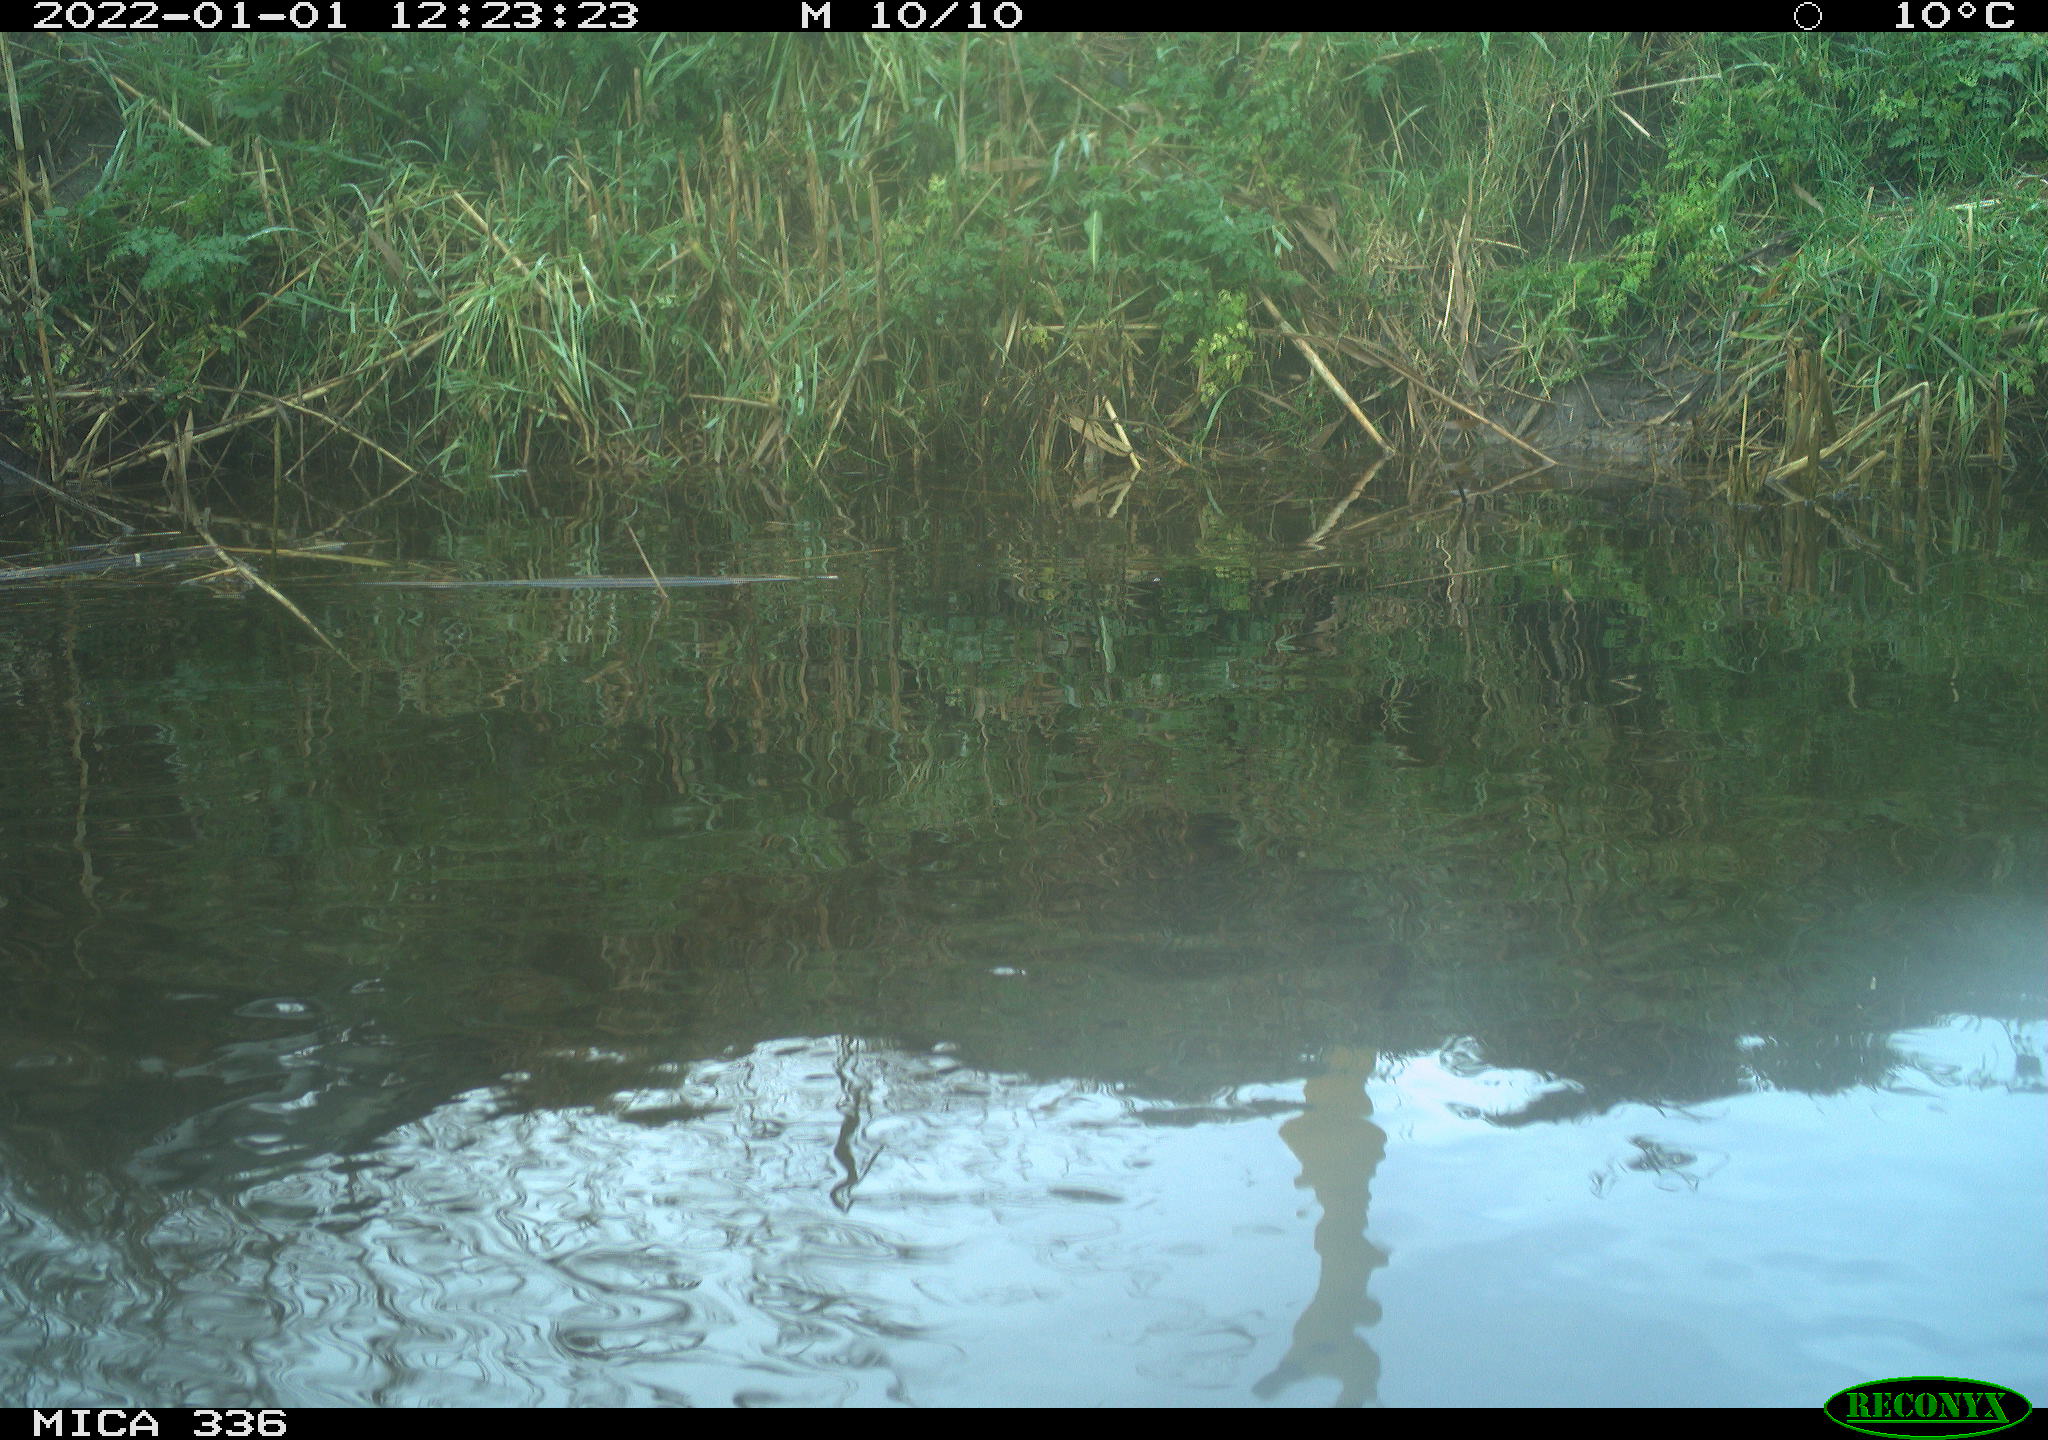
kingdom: Animalia
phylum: Chordata
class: Aves
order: Gruiformes
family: Rallidae
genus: Gallinula
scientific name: Gallinula chloropus
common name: Common moorhen
